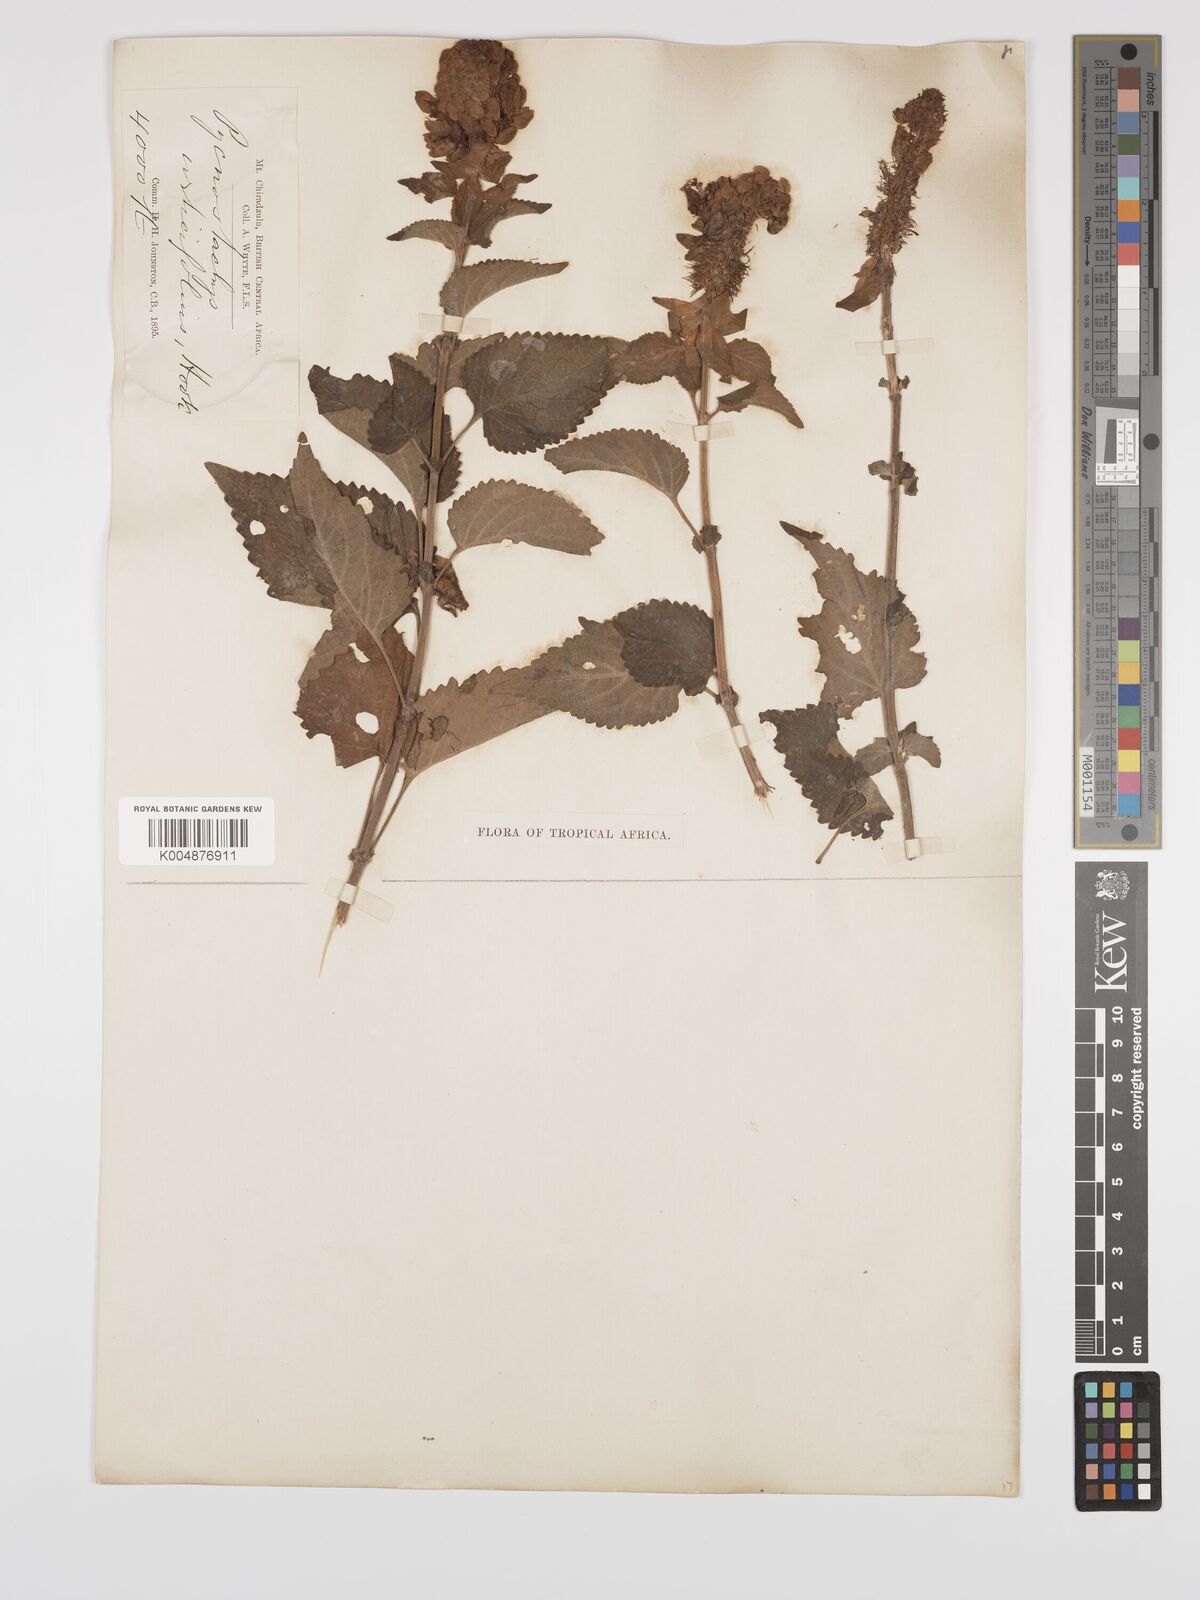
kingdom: Plantae
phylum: Tracheophyta
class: Magnoliopsida
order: Lamiales
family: Lamiaceae
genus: Coleus
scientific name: Coleus livingstonei
